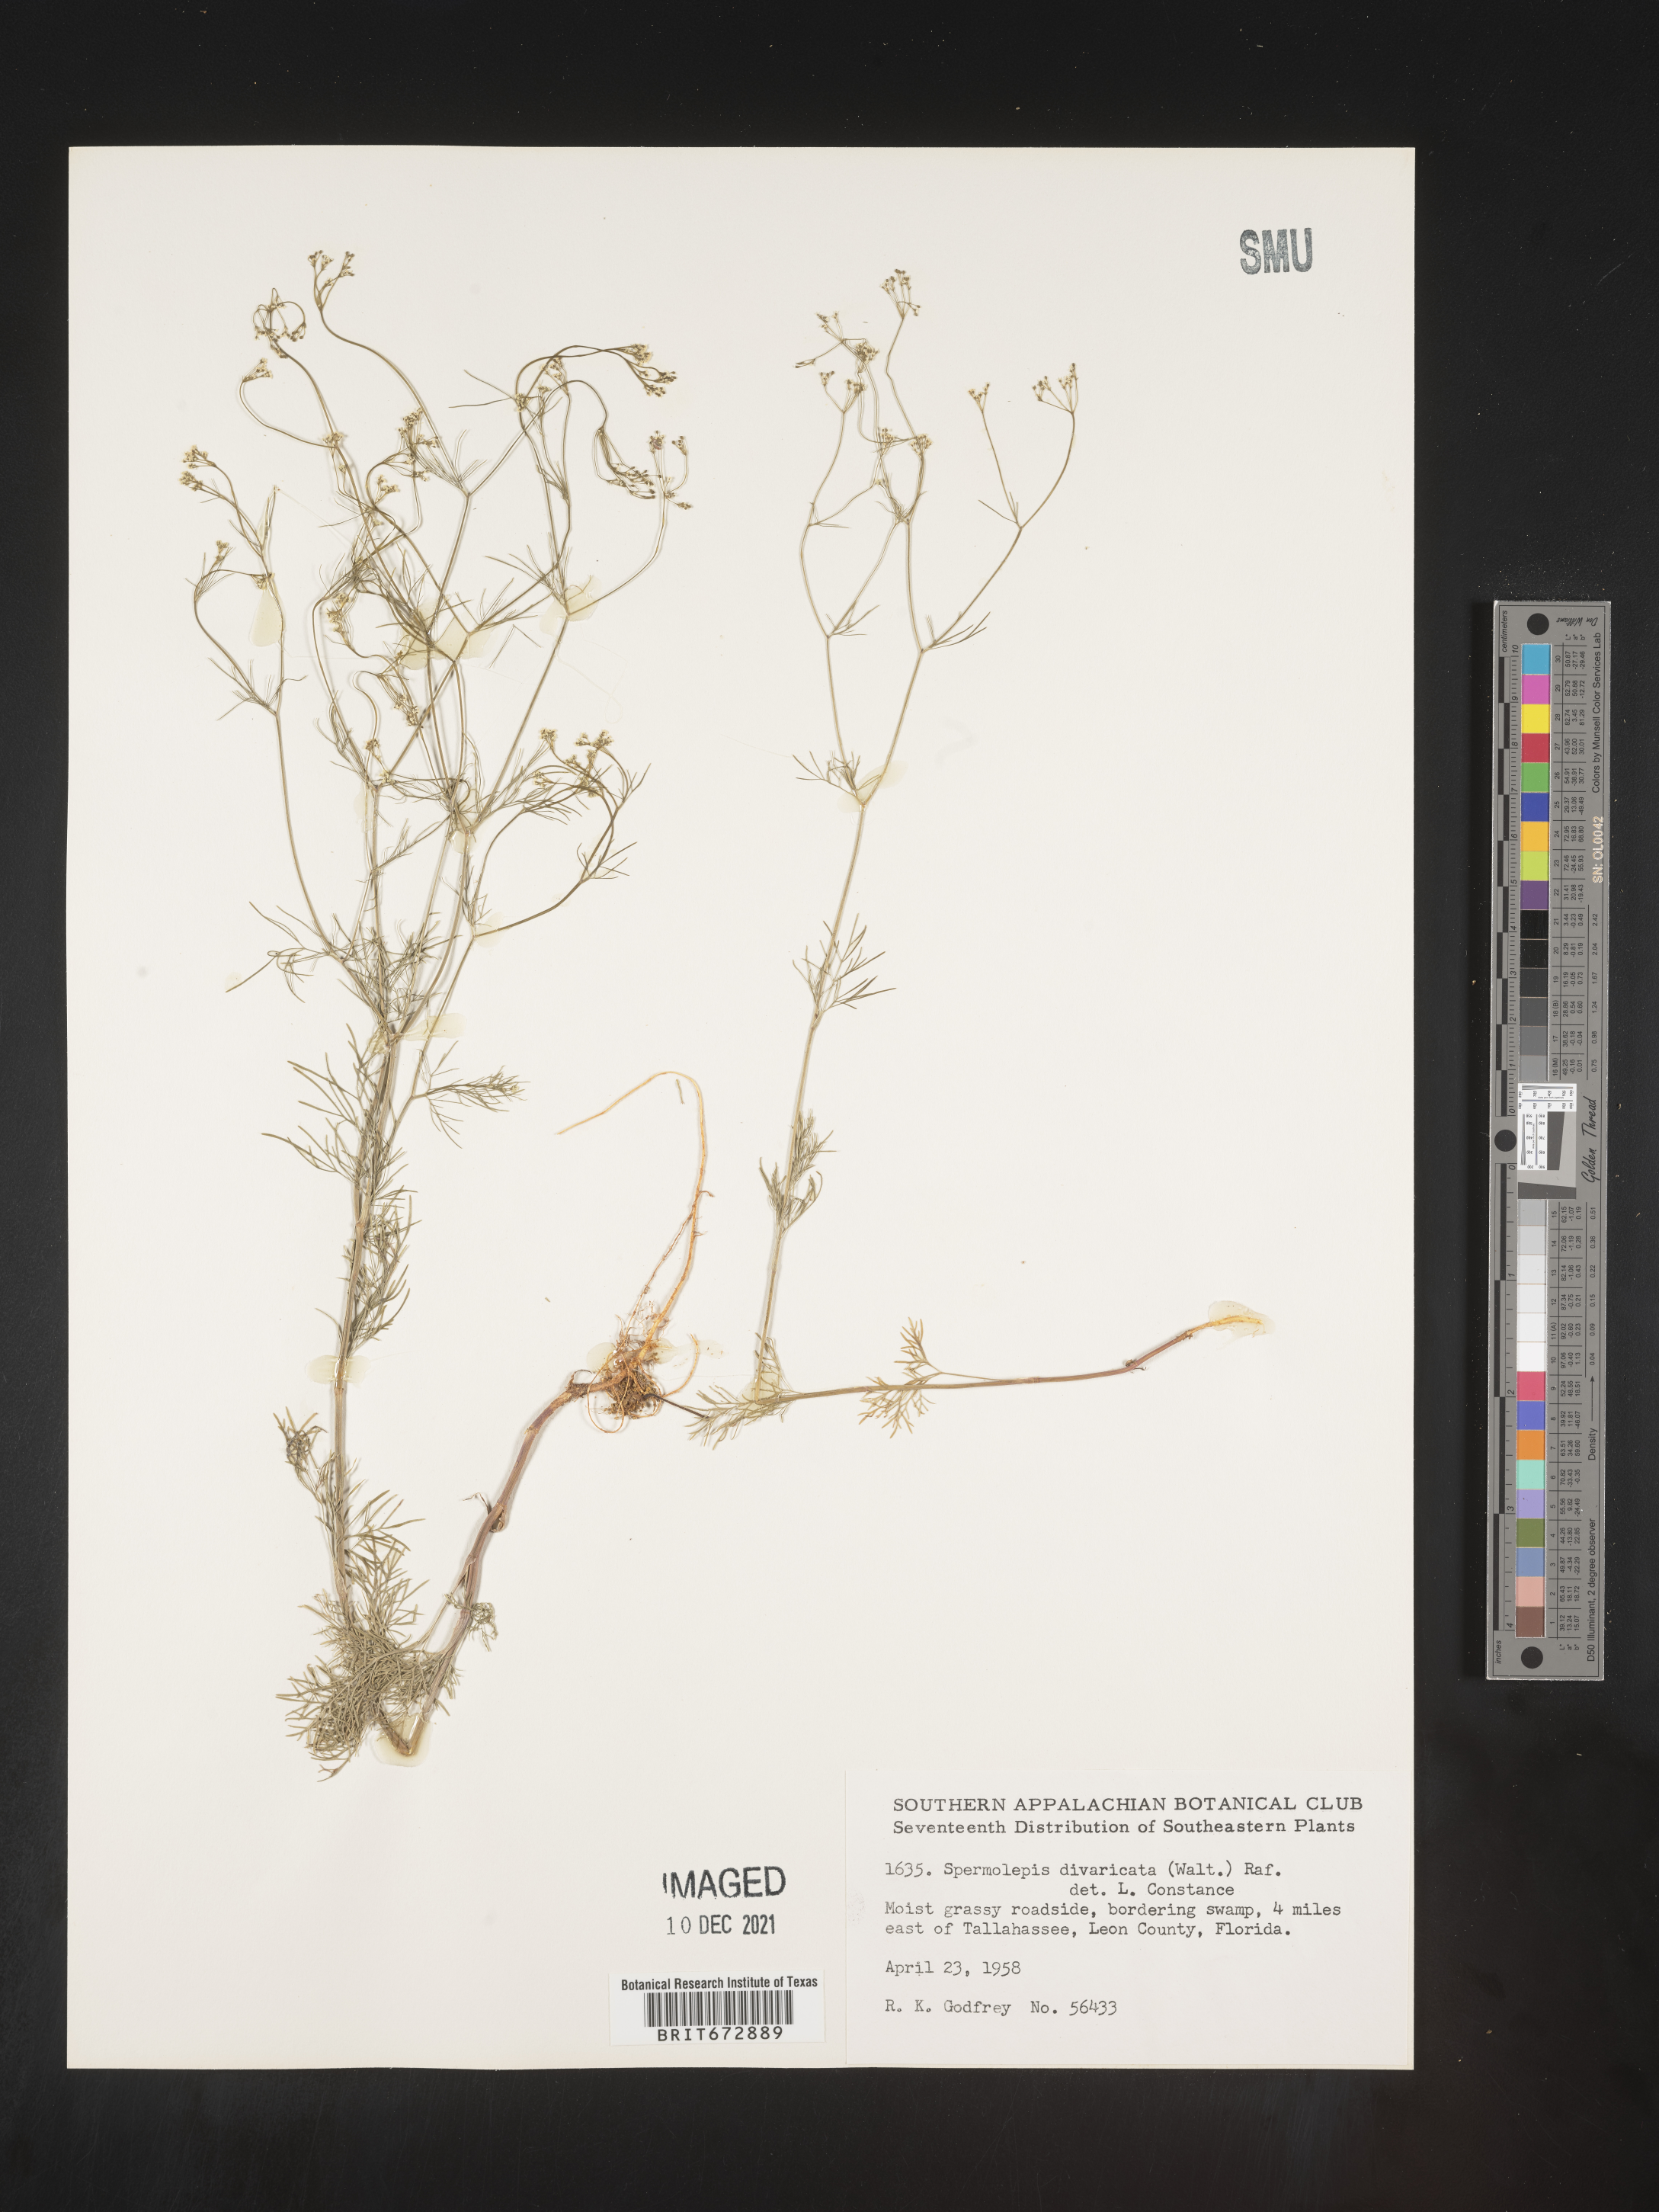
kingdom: Plantae
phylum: Tracheophyta
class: Magnoliopsida
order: Apiales
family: Apiaceae
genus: Spermolepis
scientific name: Spermolepis divaricata
